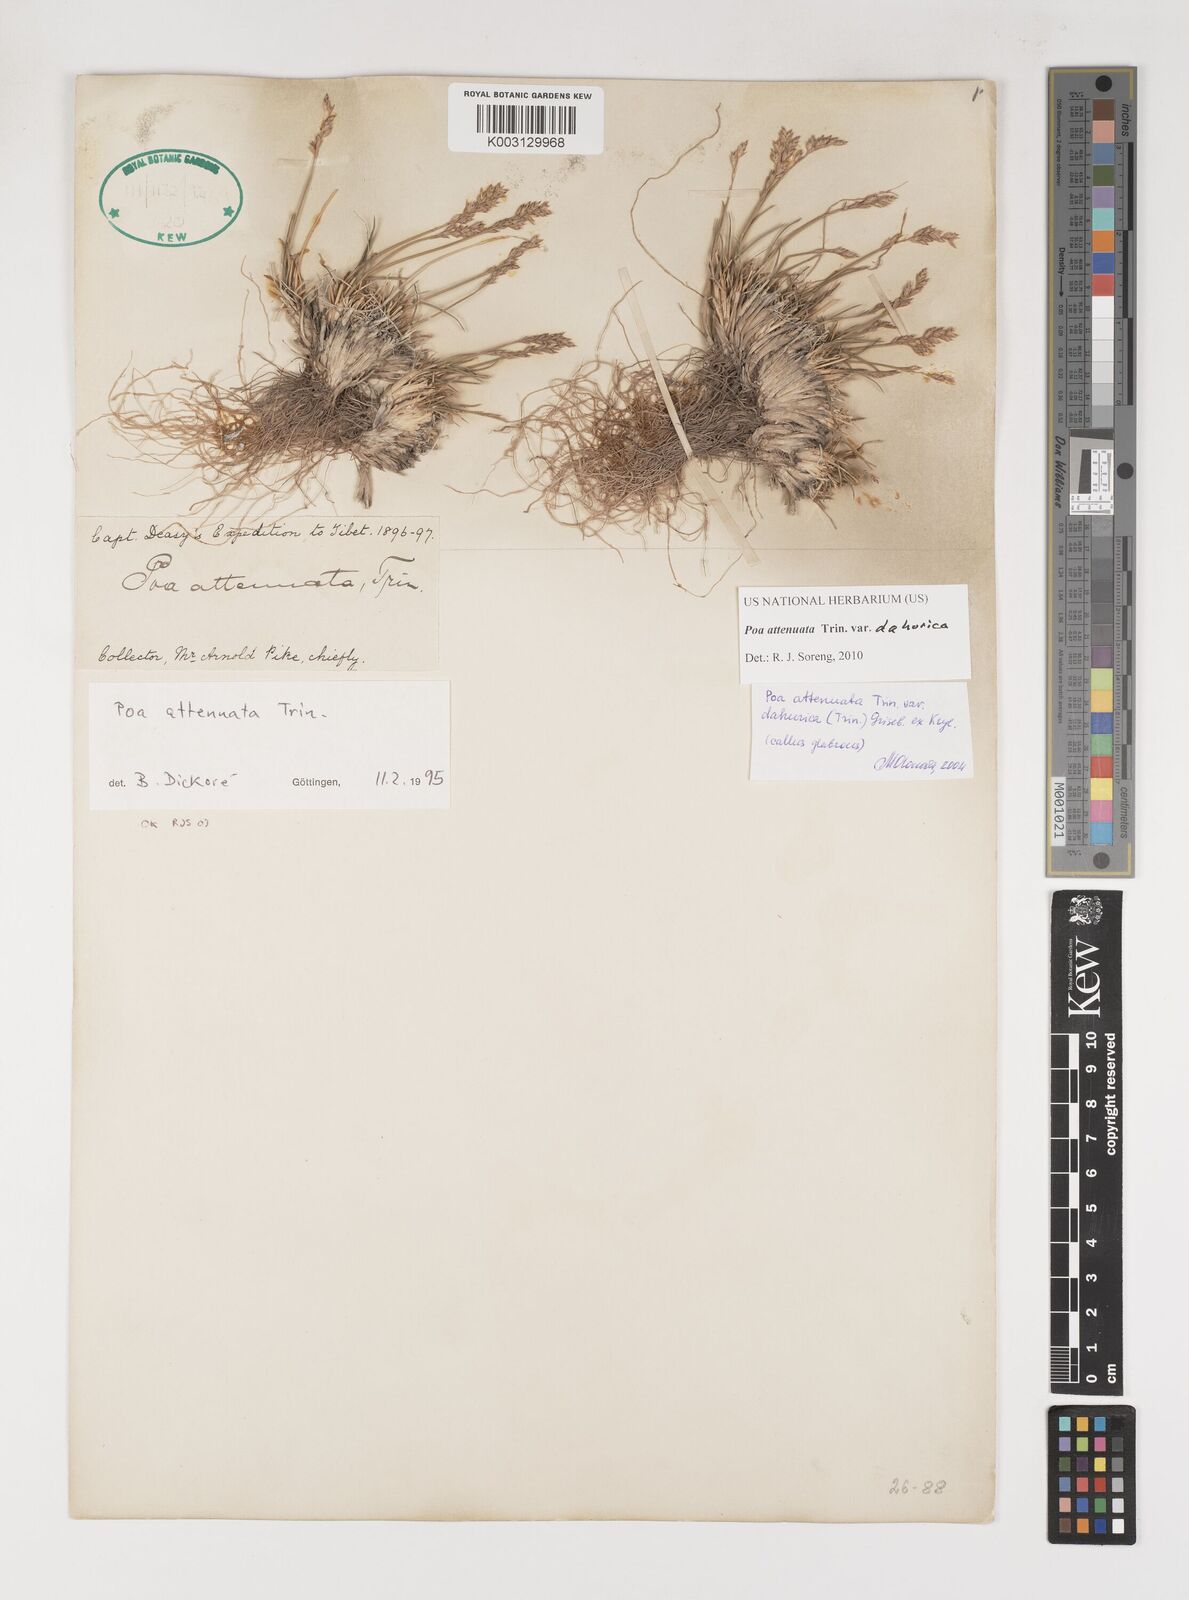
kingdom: Plantae
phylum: Tracheophyta
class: Liliopsida
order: Poales
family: Poaceae
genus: Poa
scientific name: Poa attenuata
